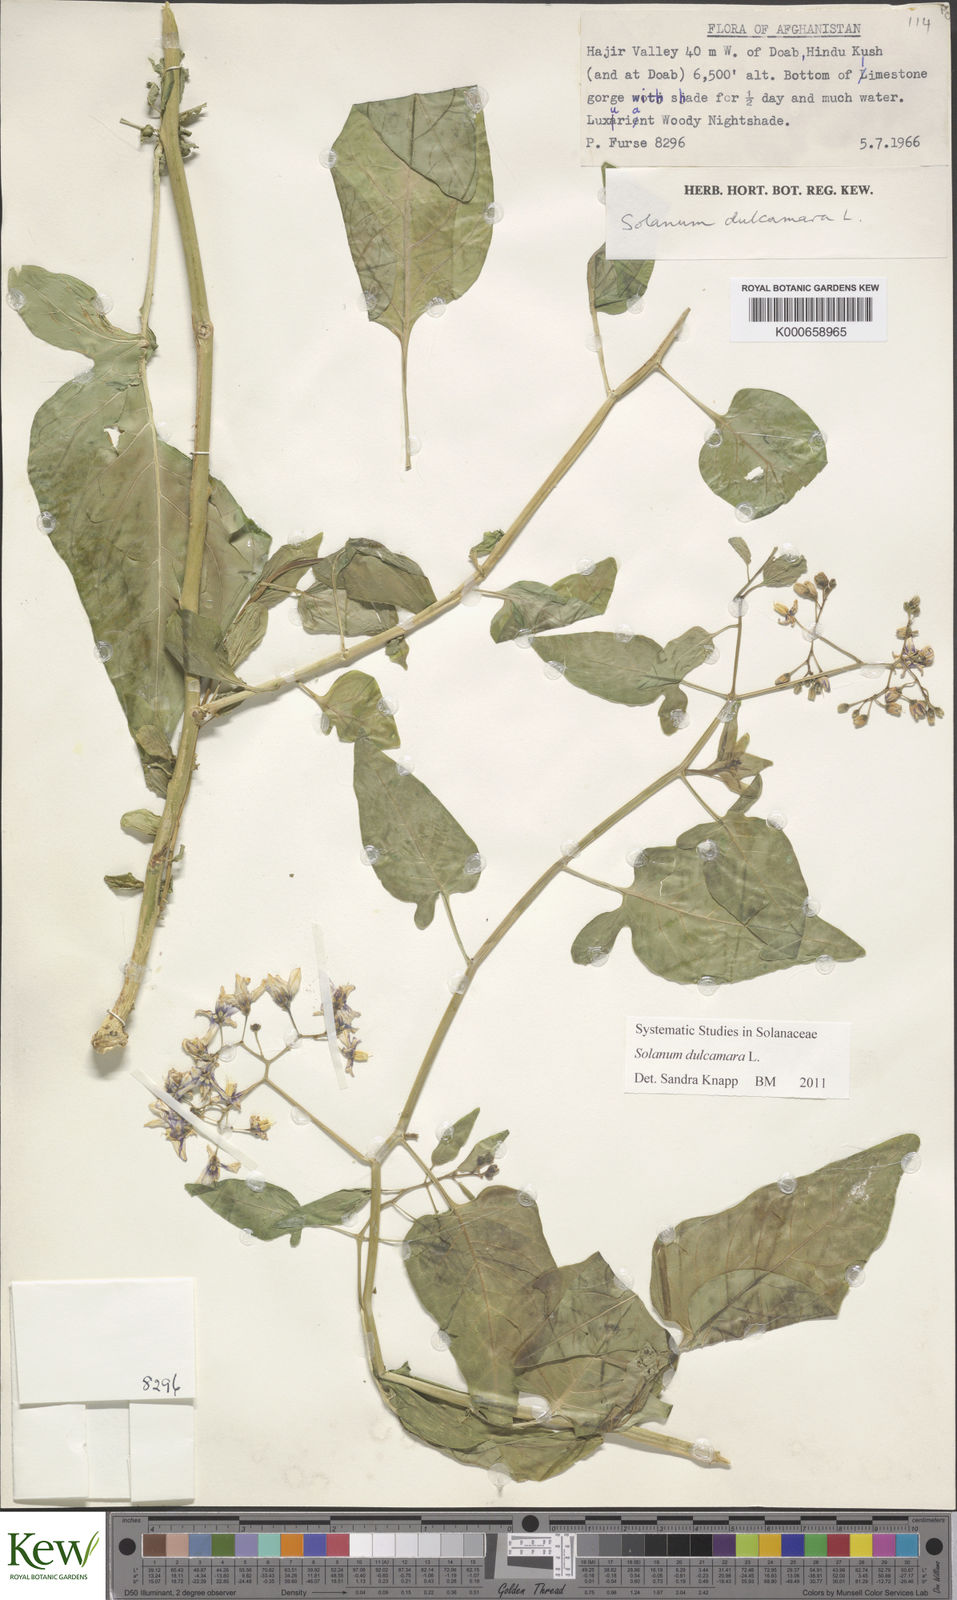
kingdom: Plantae
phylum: Tracheophyta
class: Magnoliopsida
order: Solanales
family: Solanaceae
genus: Solanum
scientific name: Solanum dulcamara
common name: Climbing nightshade
